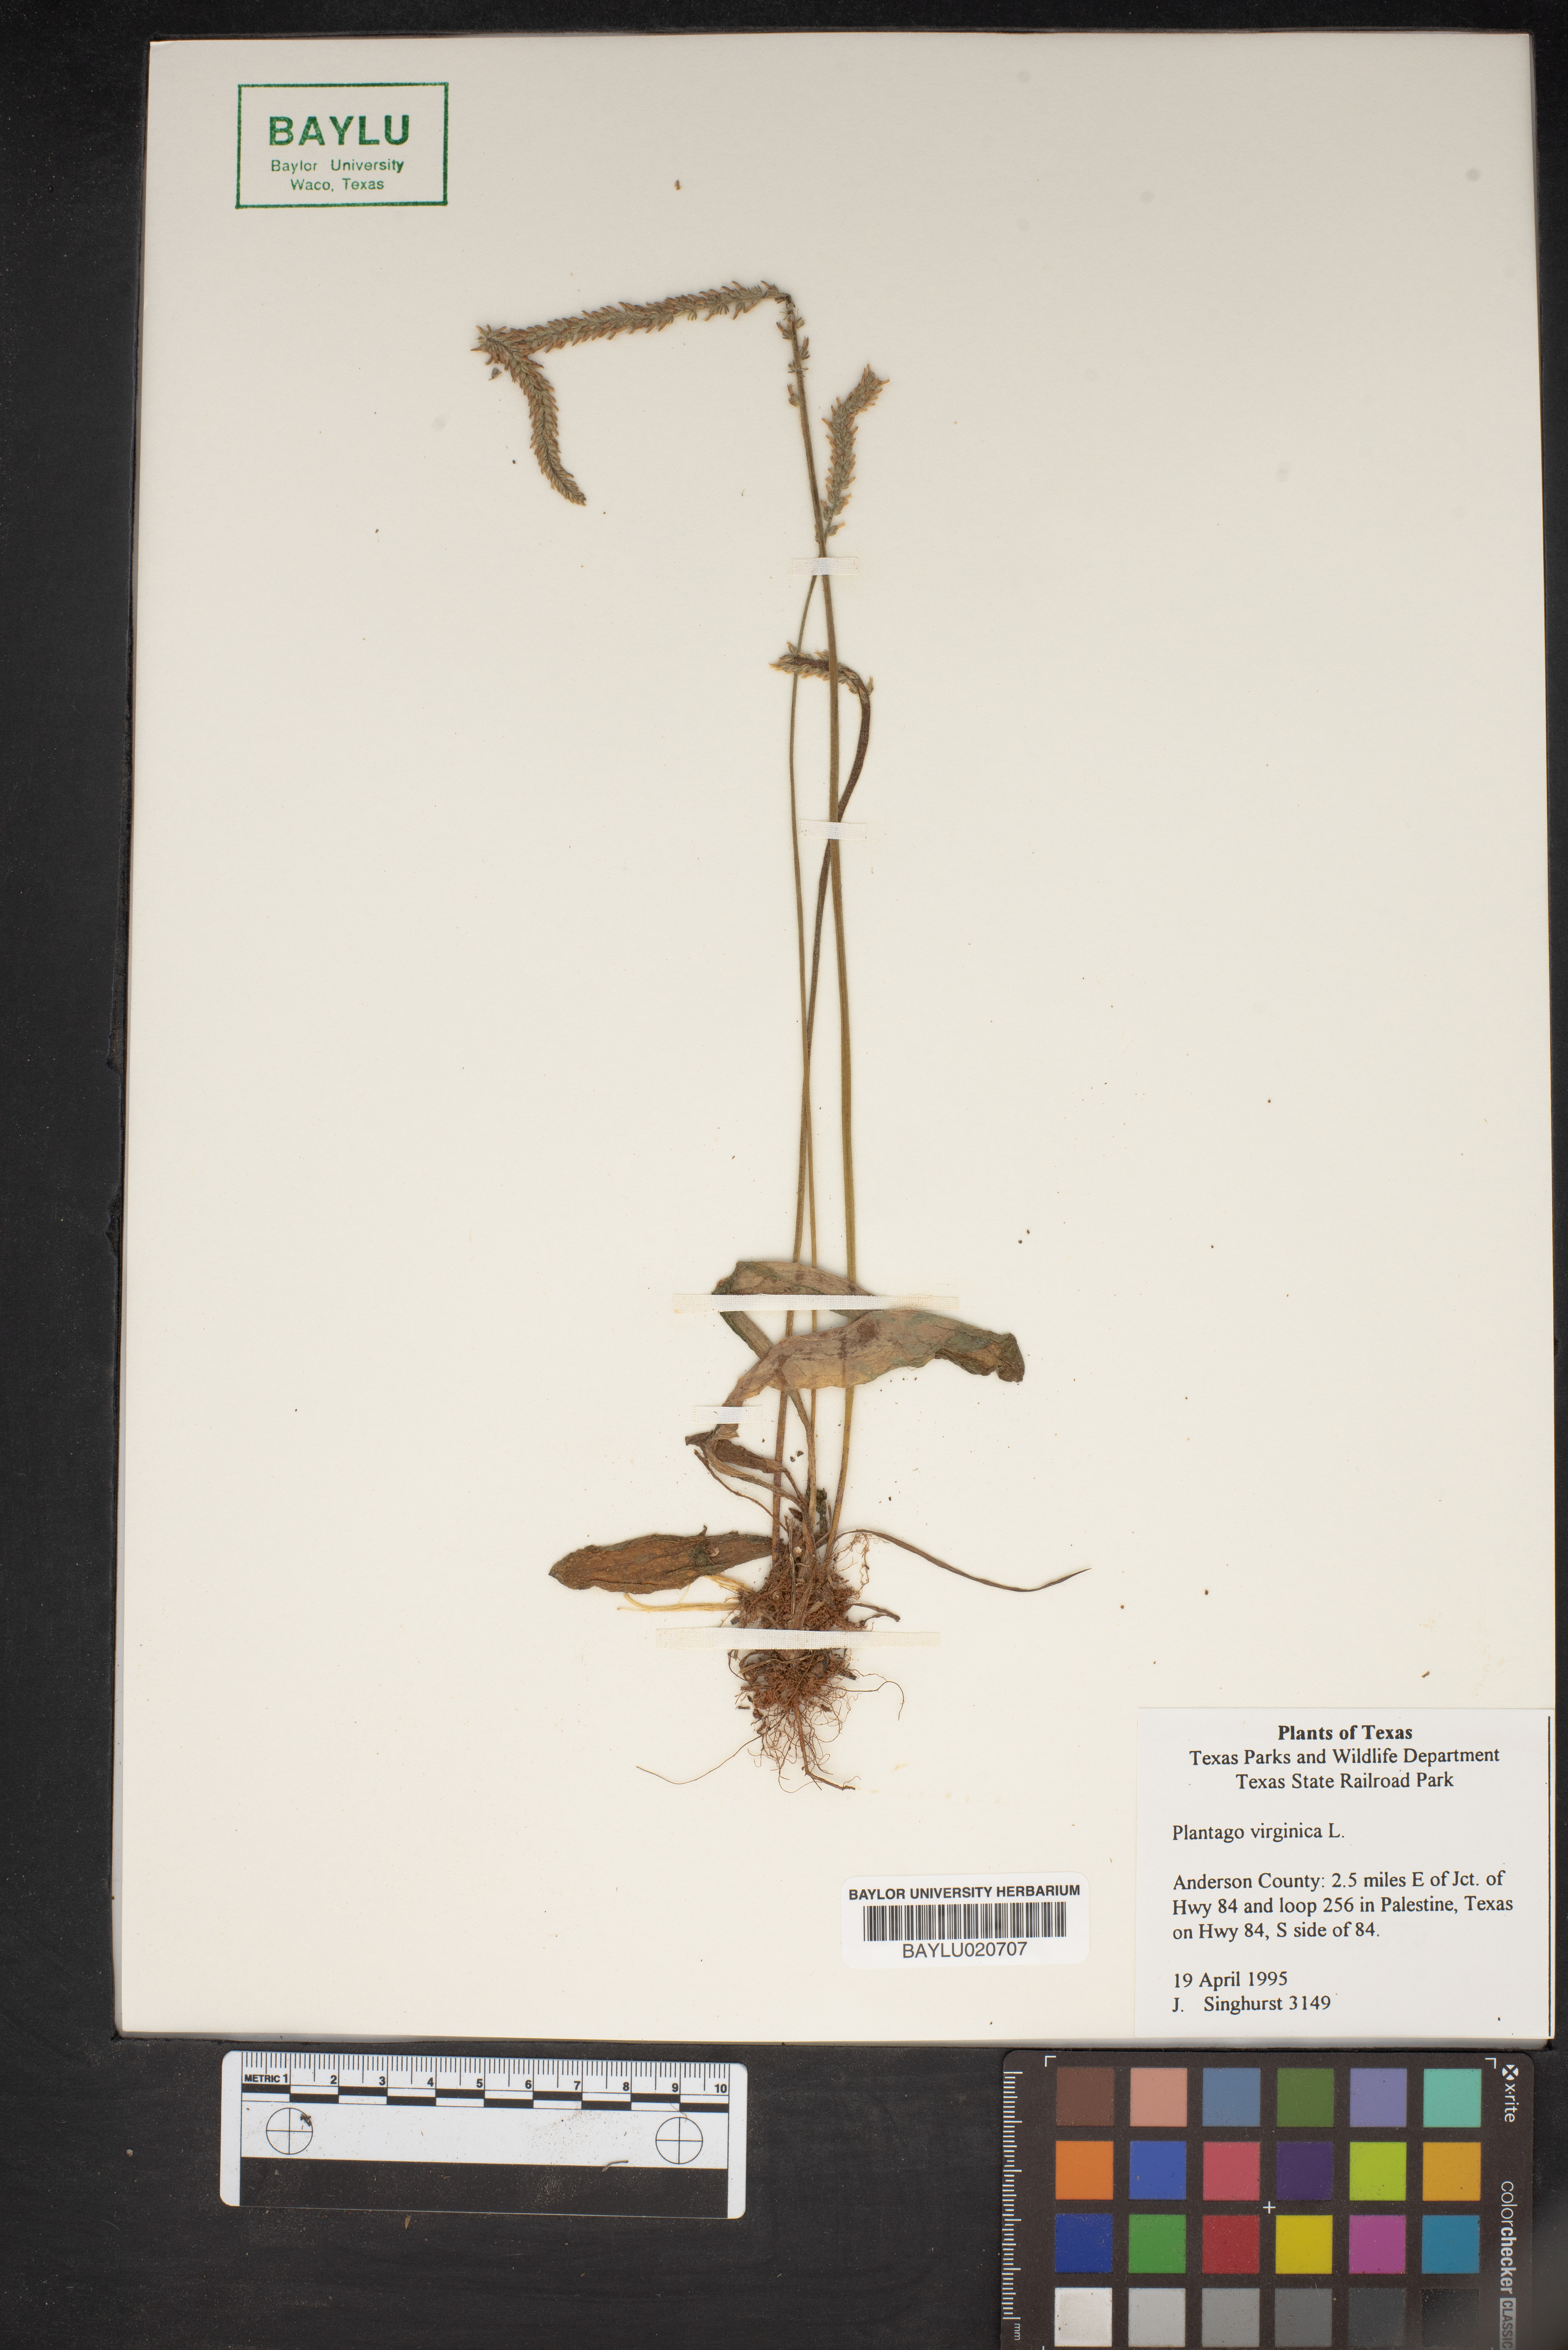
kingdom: Plantae
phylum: Tracheophyta
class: Magnoliopsida
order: Lamiales
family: Plantaginaceae
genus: Plantago
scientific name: Plantago virginica
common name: Hoary plantain
